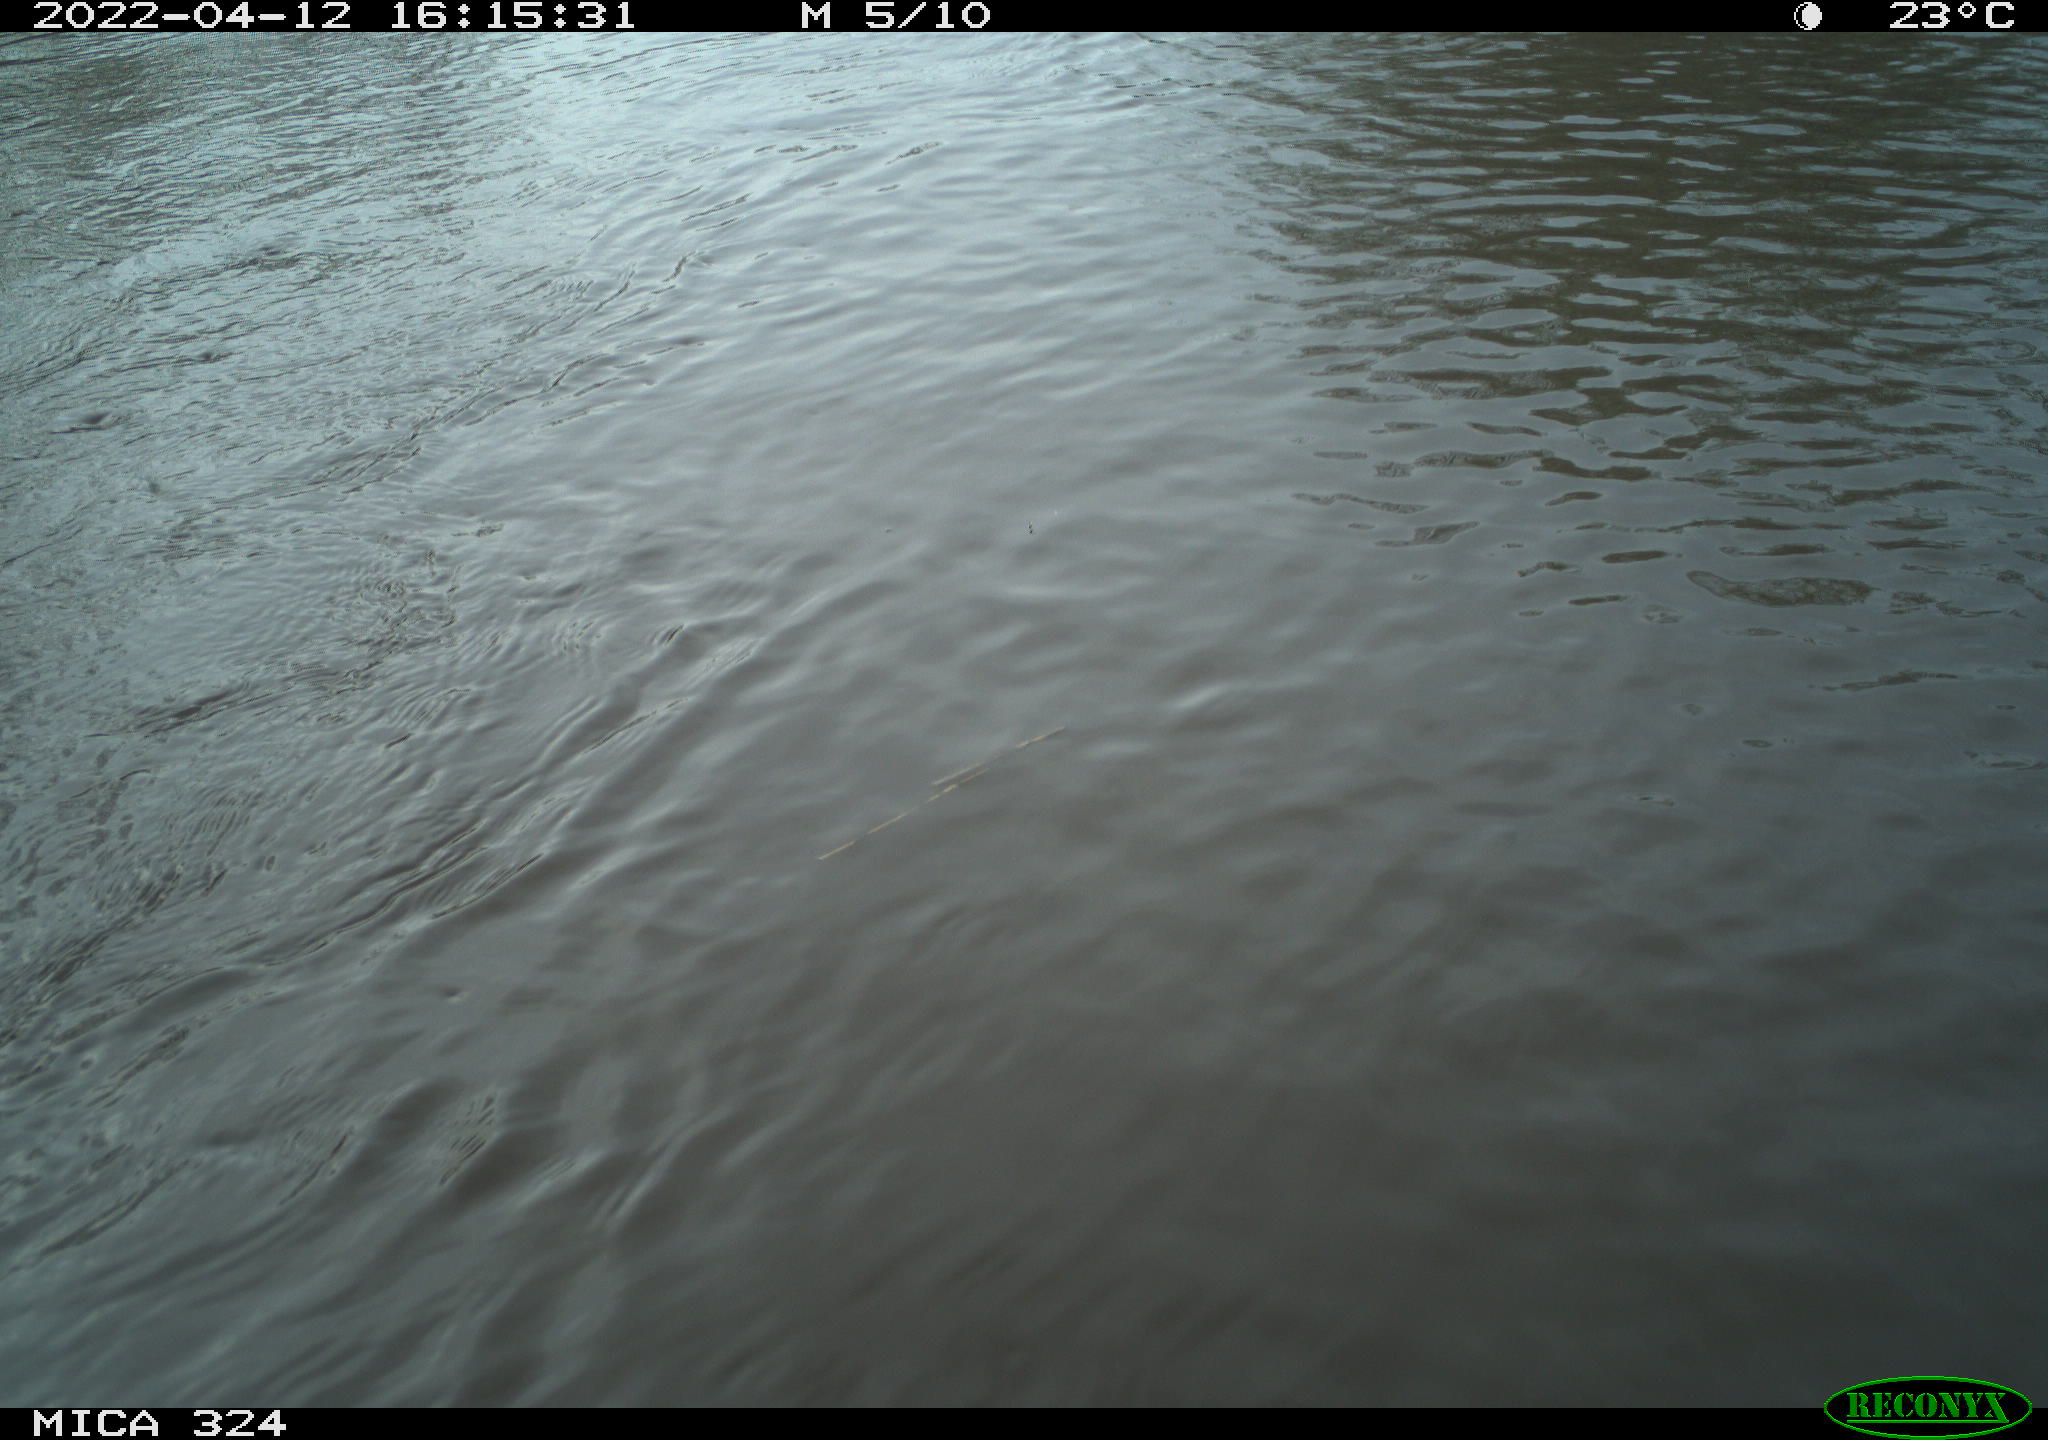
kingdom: Animalia
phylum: Chordata
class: Mammalia
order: Rodentia
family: Cricetidae
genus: Ondatra
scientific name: Ondatra zibethicus
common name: Muskrat
